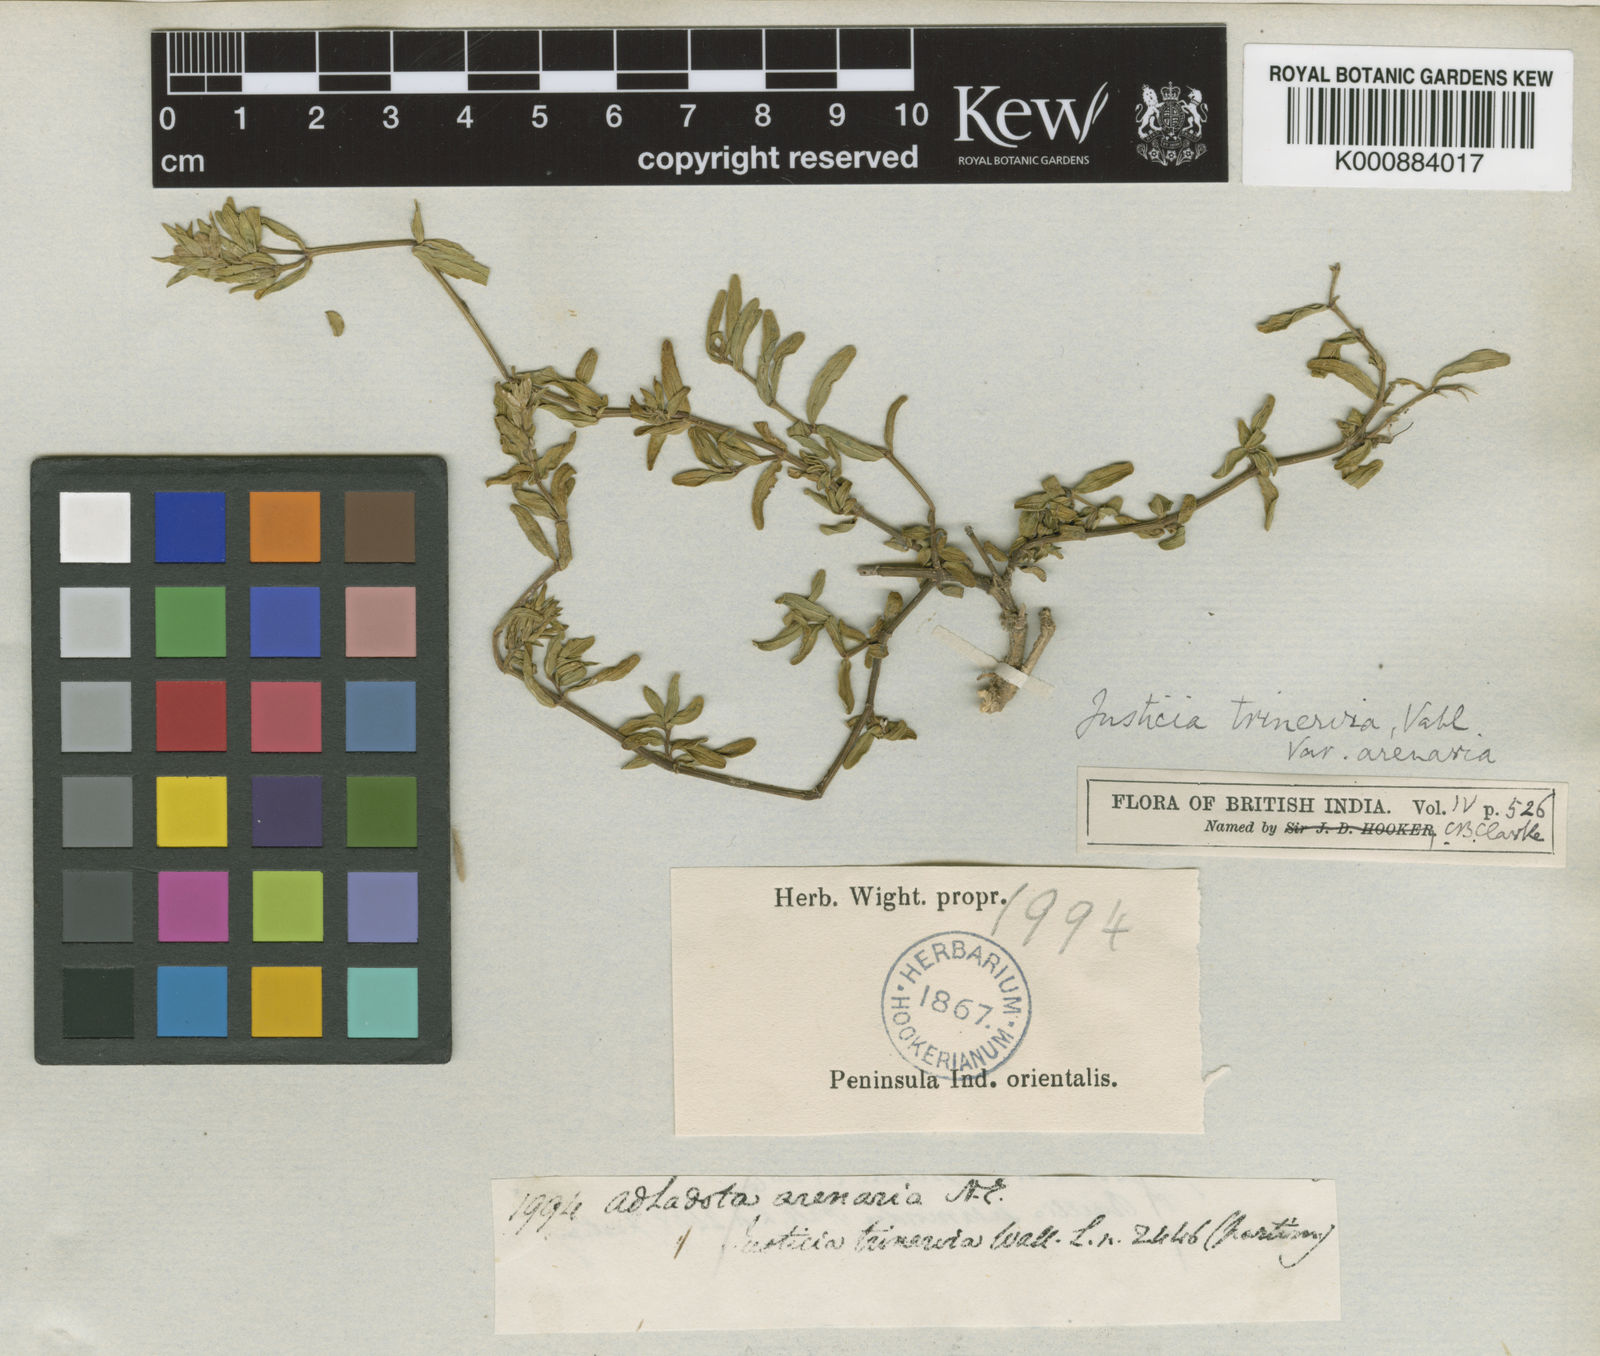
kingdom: Plantae
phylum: Tracheophyta
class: Magnoliopsida
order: Lamiales
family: Acanthaceae
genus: Nicoteba
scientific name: Nicoteba trinervia
